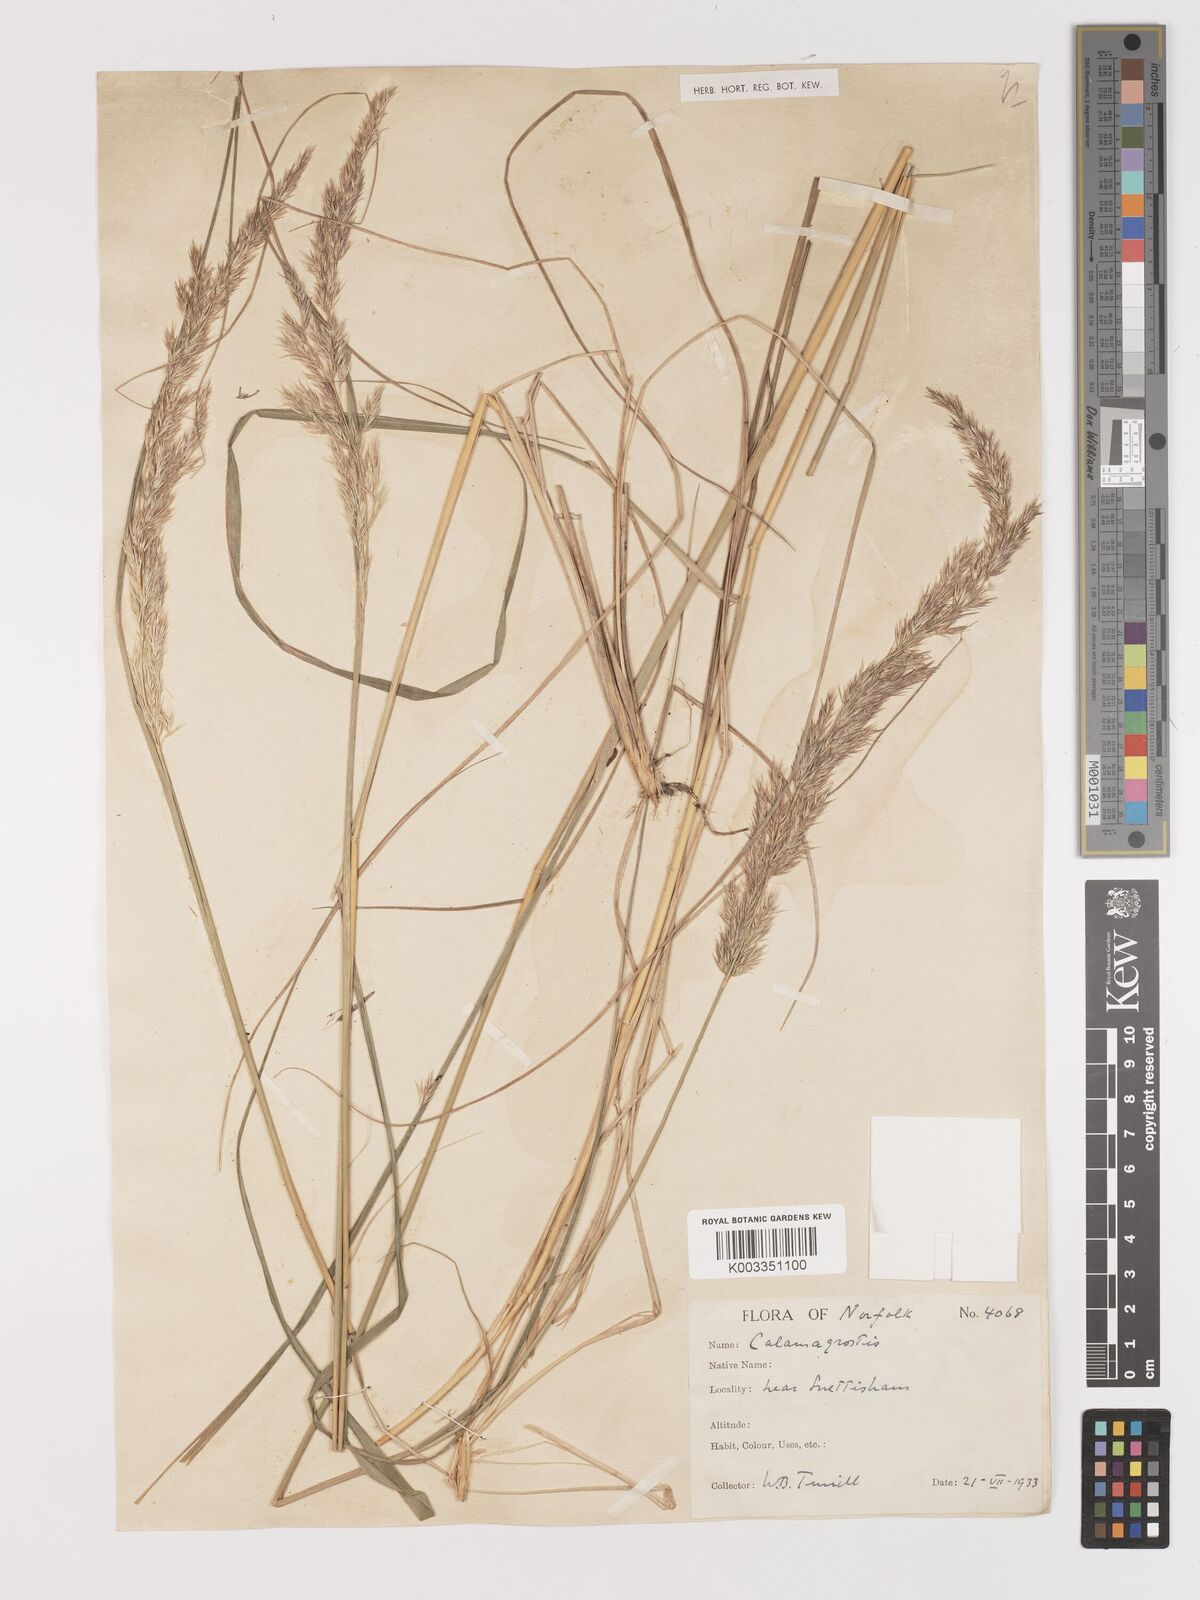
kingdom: Plantae
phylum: Tracheophyta
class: Liliopsida
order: Poales
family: Poaceae
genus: Calamagrostis
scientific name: Calamagrostis
